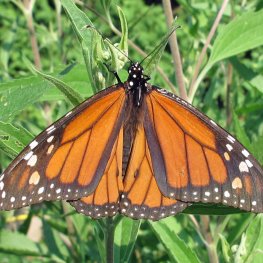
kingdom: Animalia
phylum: Arthropoda
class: Insecta
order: Lepidoptera
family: Nymphalidae
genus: Danaus
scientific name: Danaus plexippus
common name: Monarch
